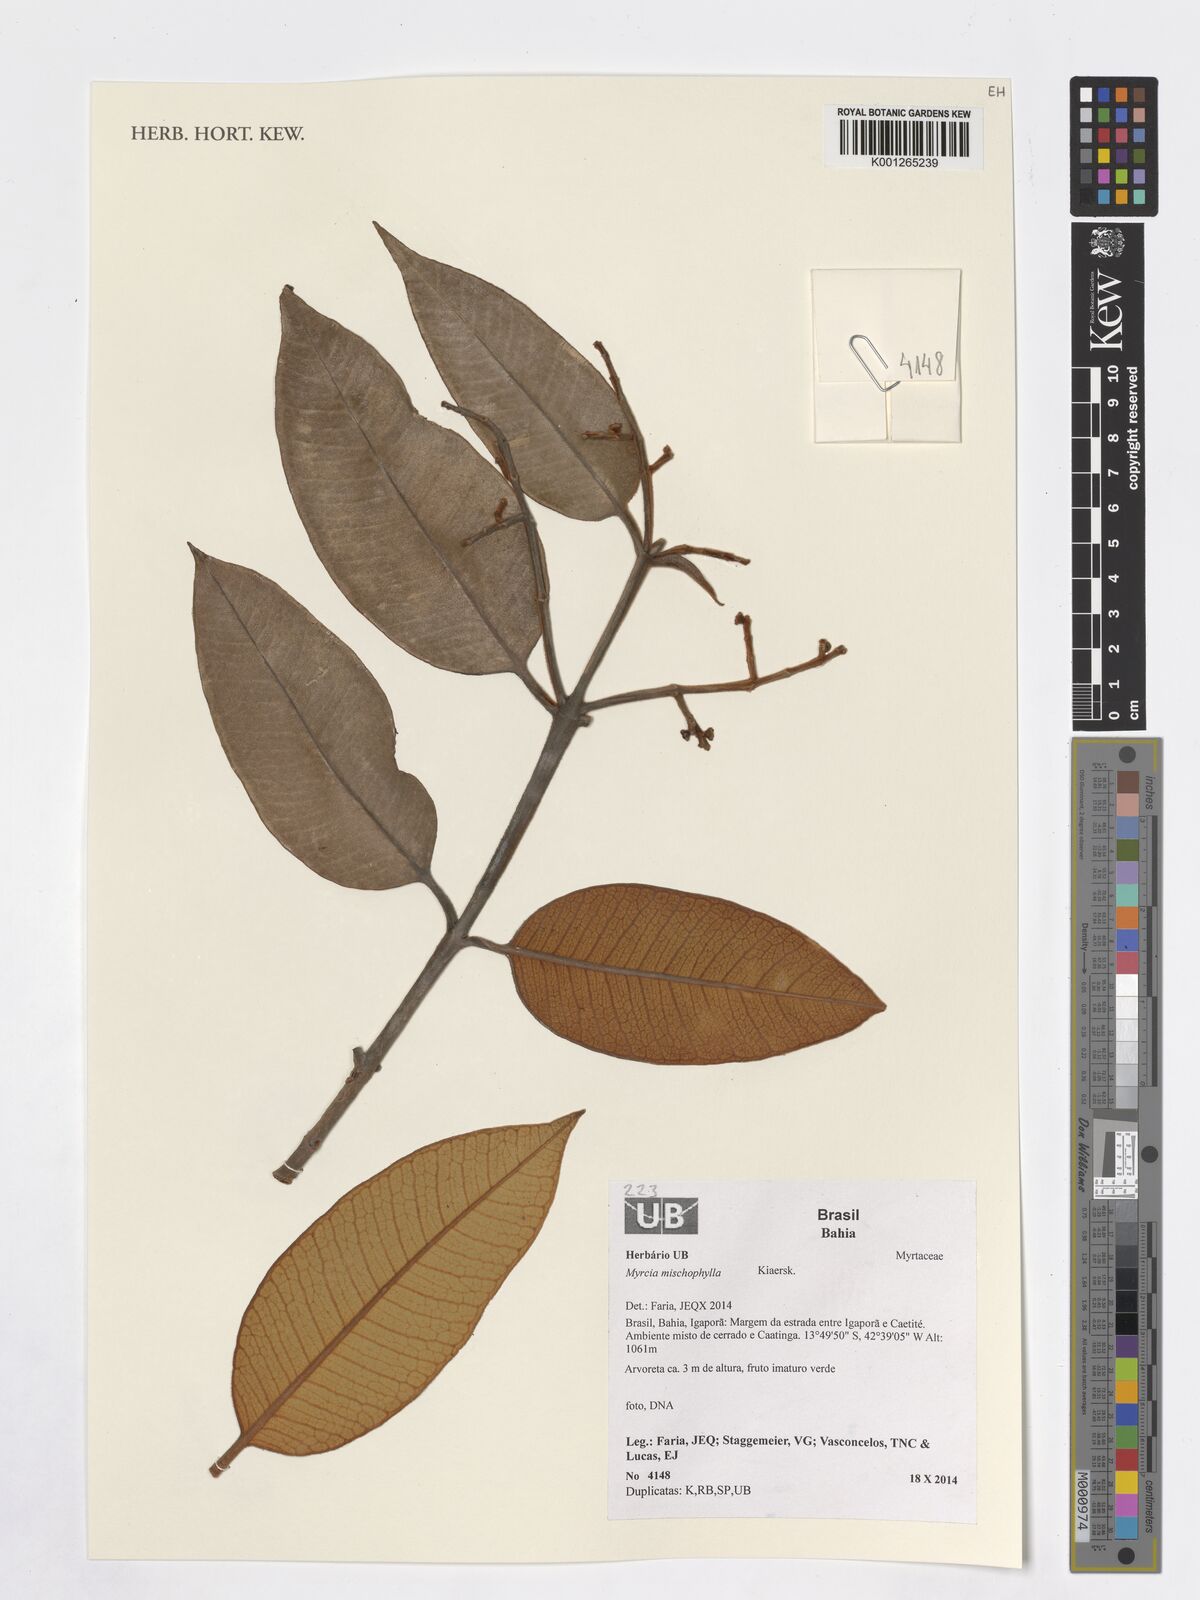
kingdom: Plantae
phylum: Tracheophyta
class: Magnoliopsida
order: Myrtales
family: Myrtaceae
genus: Myrcia
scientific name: Myrcia mischophylla
